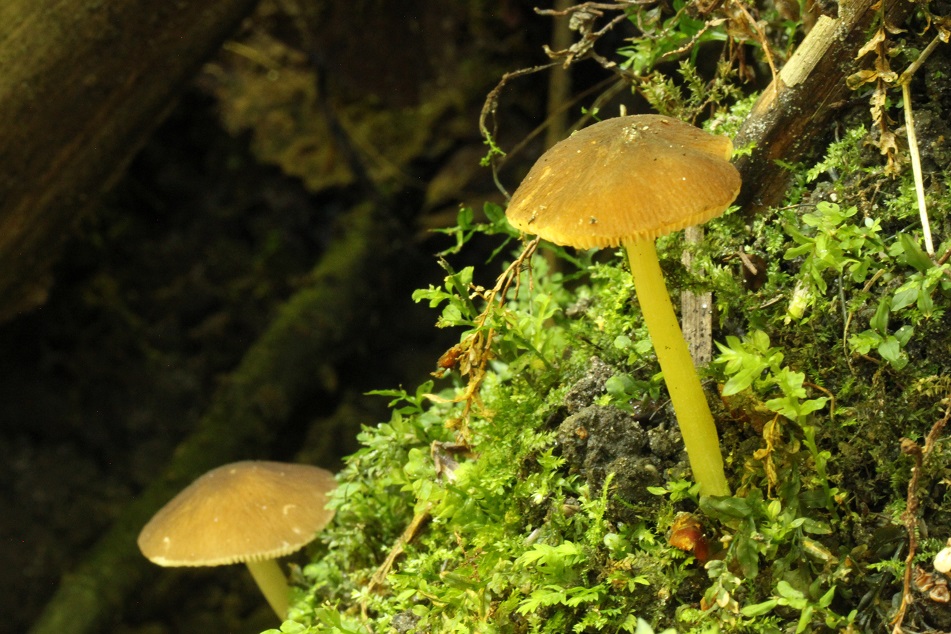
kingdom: Fungi
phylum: Basidiomycota
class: Agaricomycetes
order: Agaricales
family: Pluteaceae
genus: Pluteus
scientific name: Pluteus romellii
